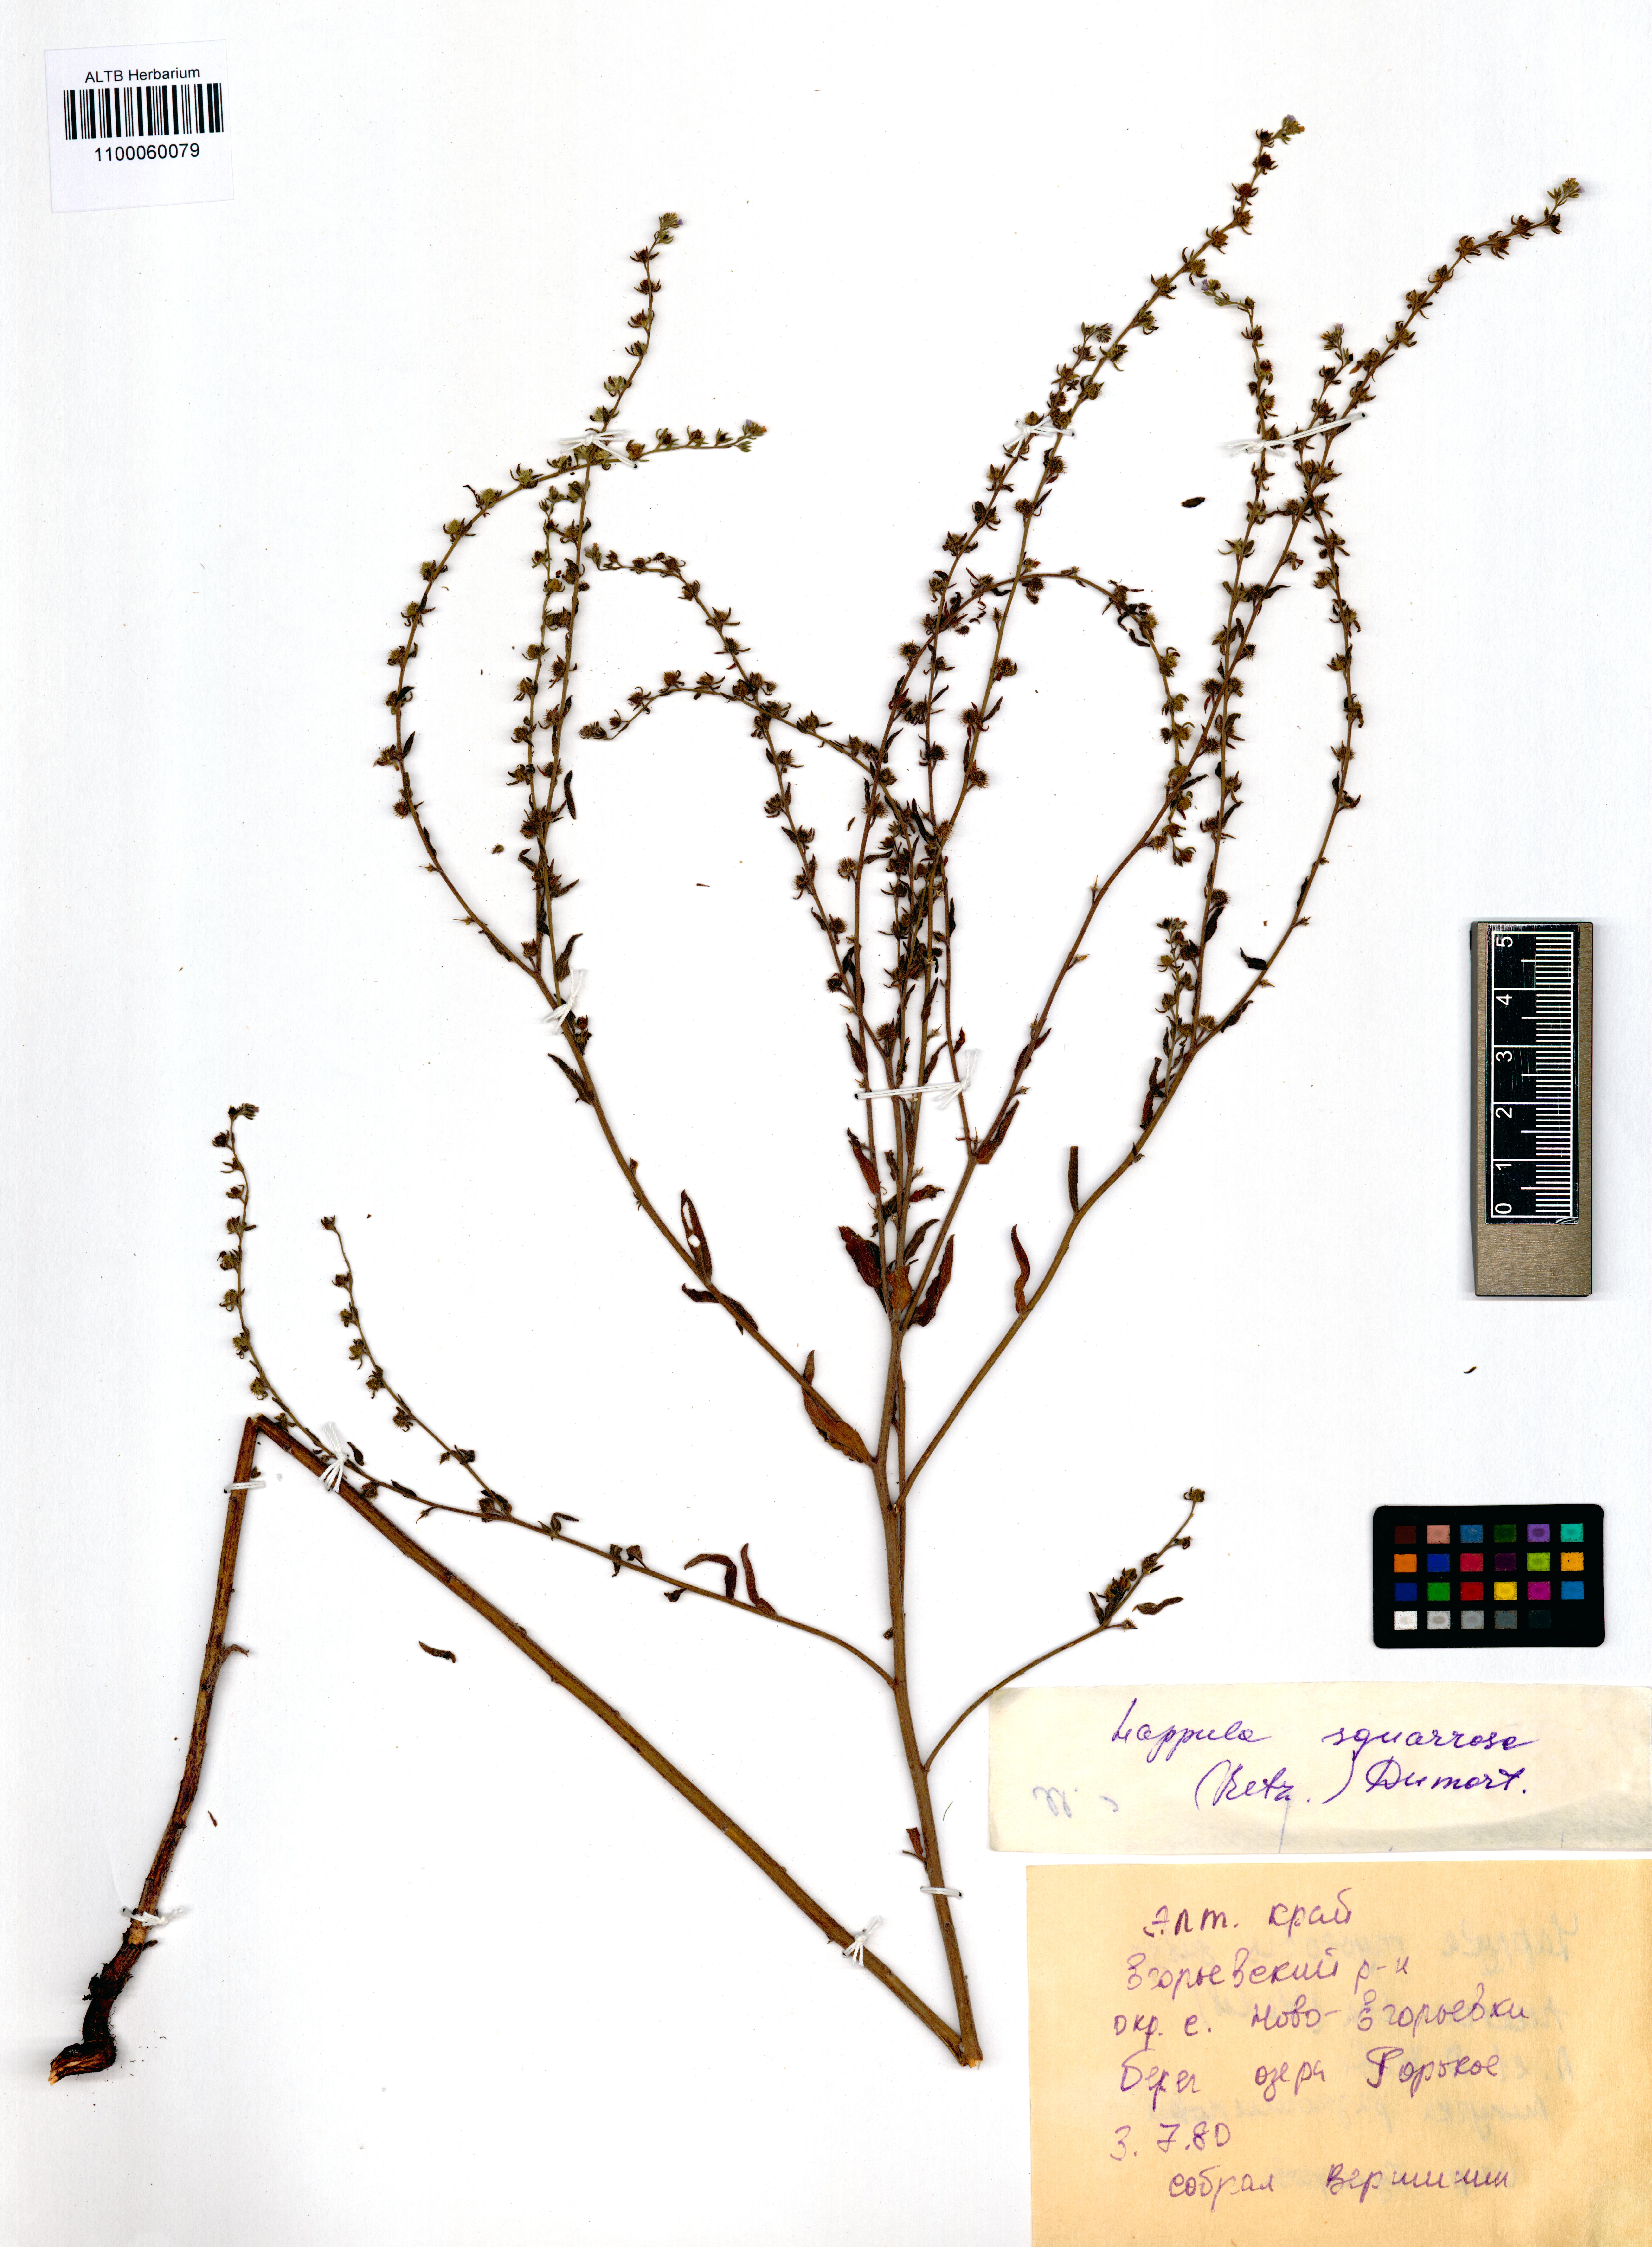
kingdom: Plantae
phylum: Tracheophyta
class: Magnoliopsida
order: Boraginales
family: Boraginaceae
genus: Lappula
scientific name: Lappula squarrosa
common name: European stickseed
